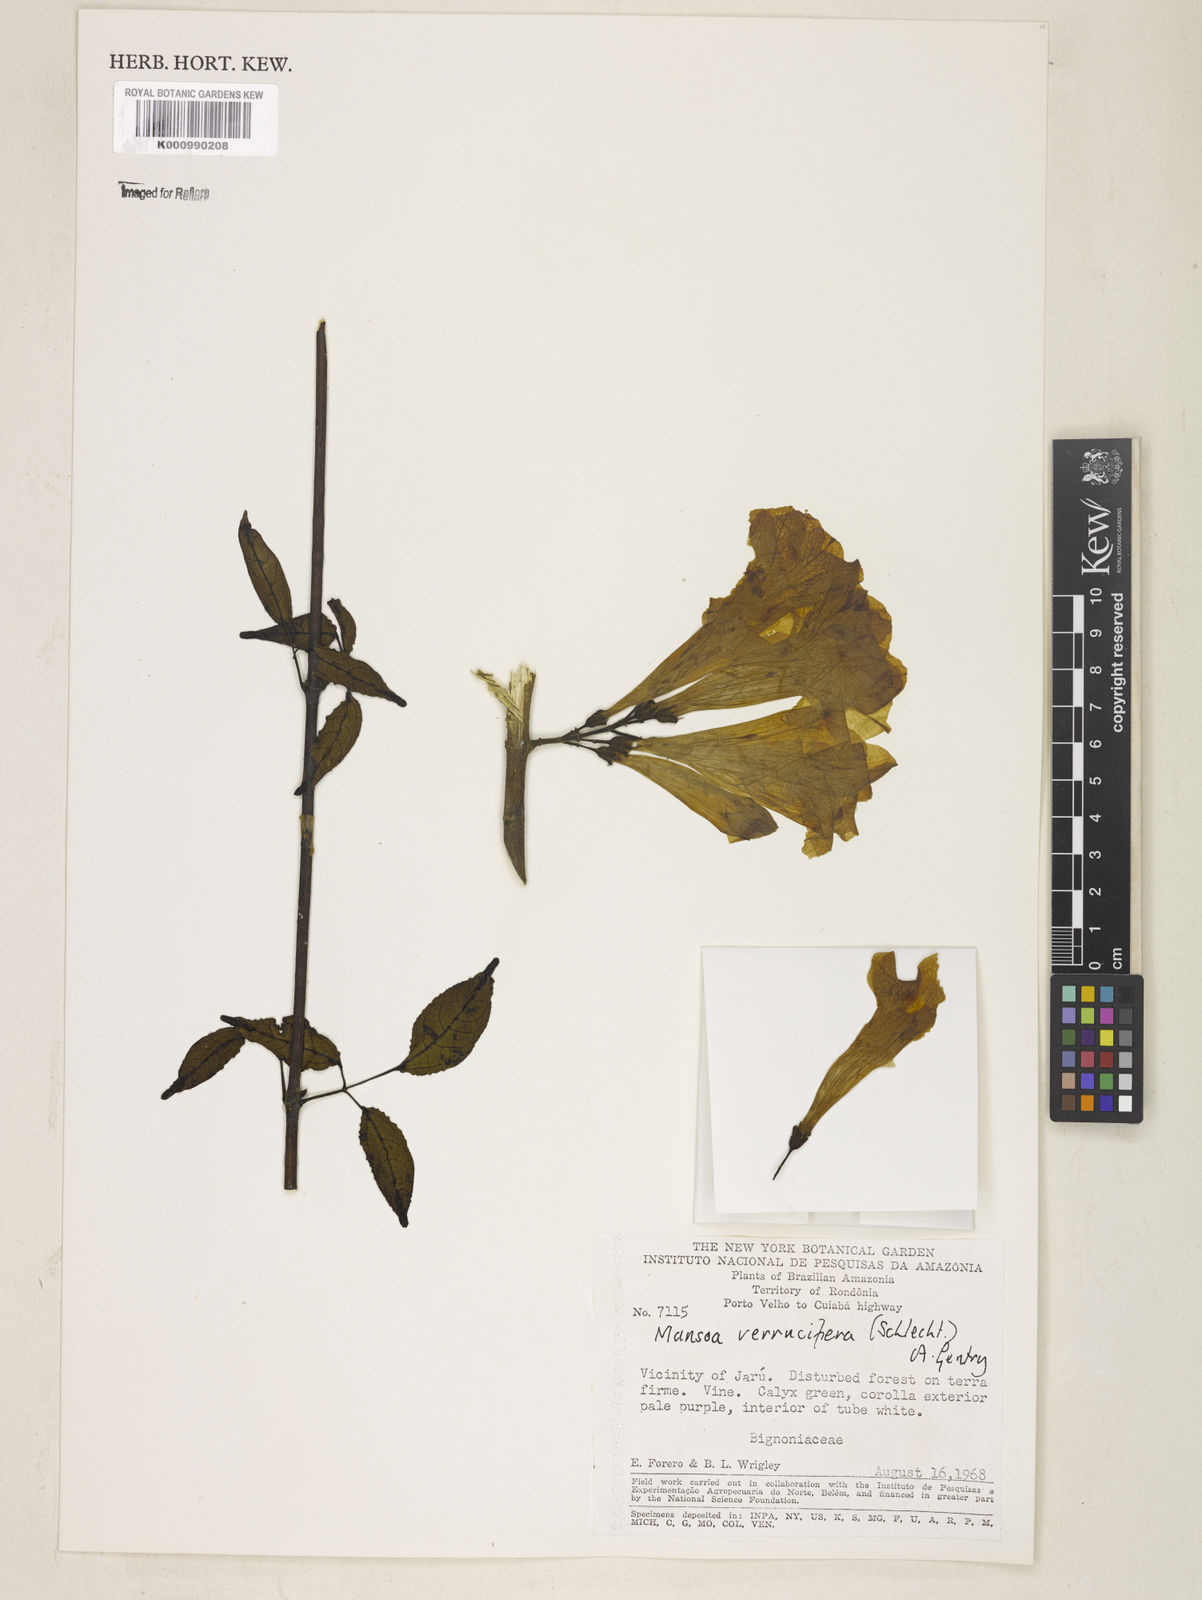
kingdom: Plantae
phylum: Tracheophyta
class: Magnoliopsida
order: Lamiales
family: Bignoniaceae
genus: Mansoa
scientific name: Mansoa verrucifera
